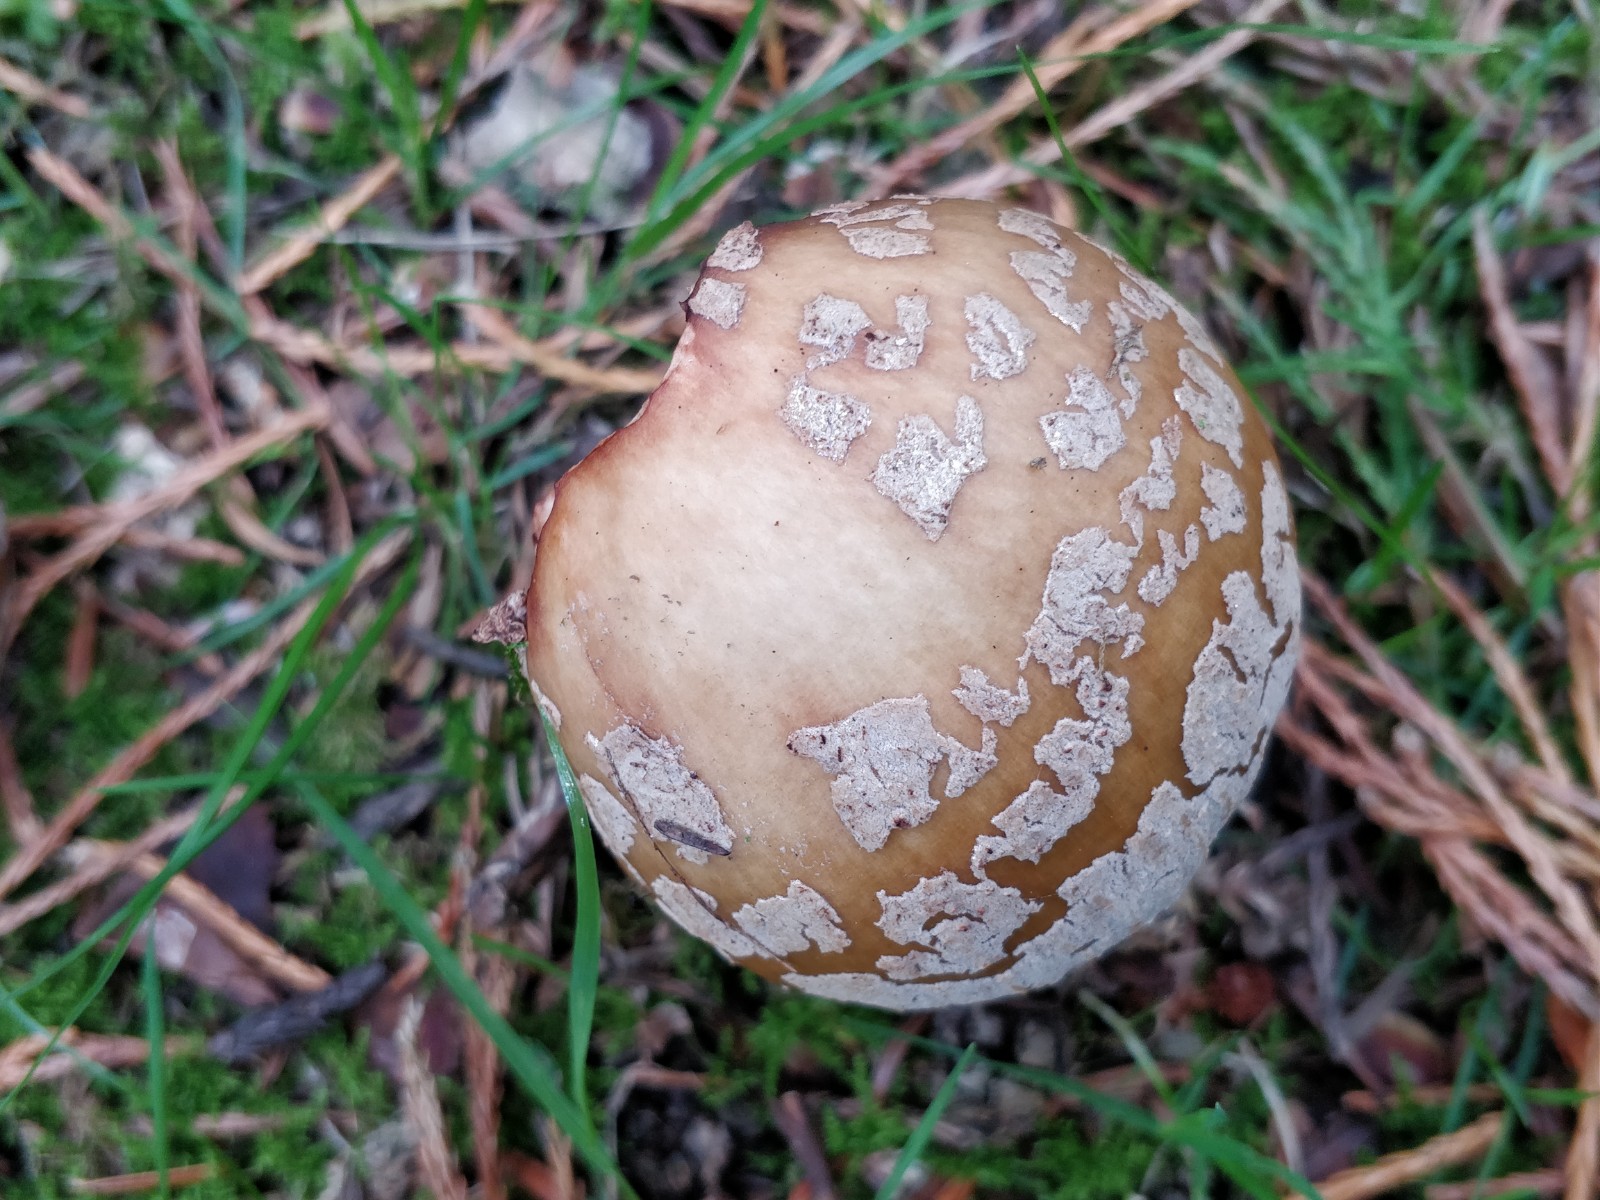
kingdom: Fungi
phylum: Basidiomycota
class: Agaricomycetes
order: Agaricales
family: Amanitaceae
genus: Amanita
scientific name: Amanita rubescens
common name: rødmende fluesvamp
